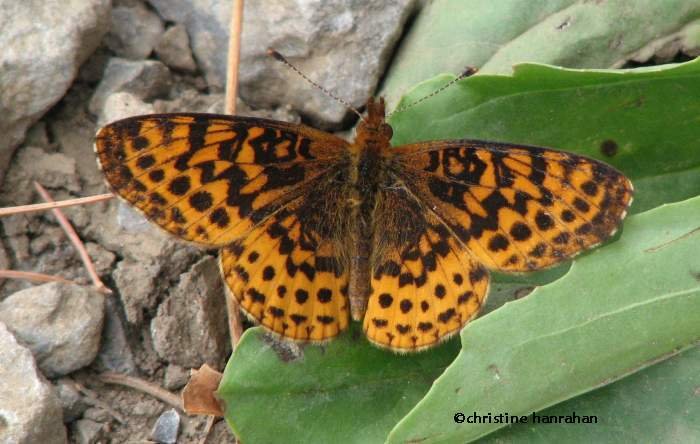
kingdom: Animalia
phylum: Arthropoda
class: Insecta
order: Lepidoptera
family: Nymphalidae
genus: Clossiana
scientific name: Clossiana toddi
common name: Meadow Fritillary
